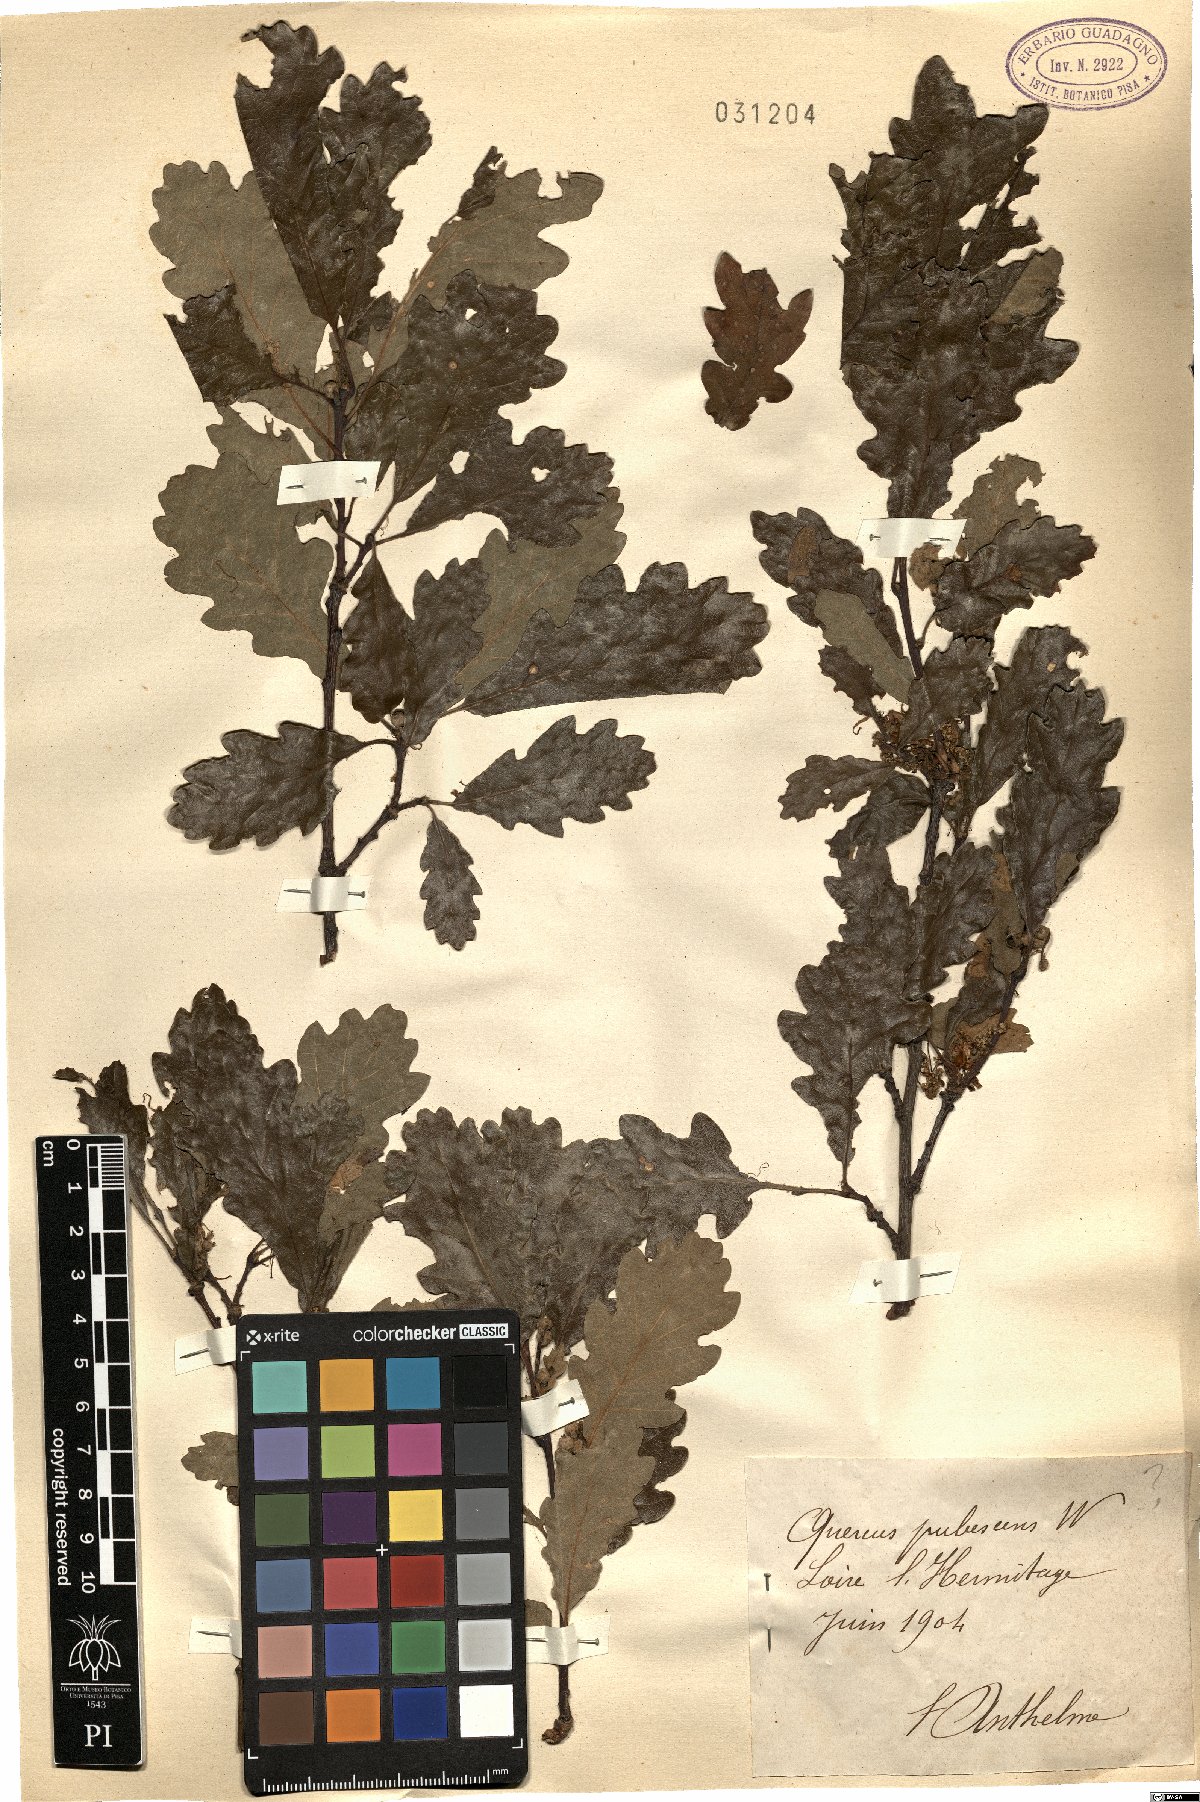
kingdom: Plantae
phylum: Tracheophyta
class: Magnoliopsida
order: Fagales
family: Fagaceae
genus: Quercus
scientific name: Quercus pubescens
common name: Downy oak
